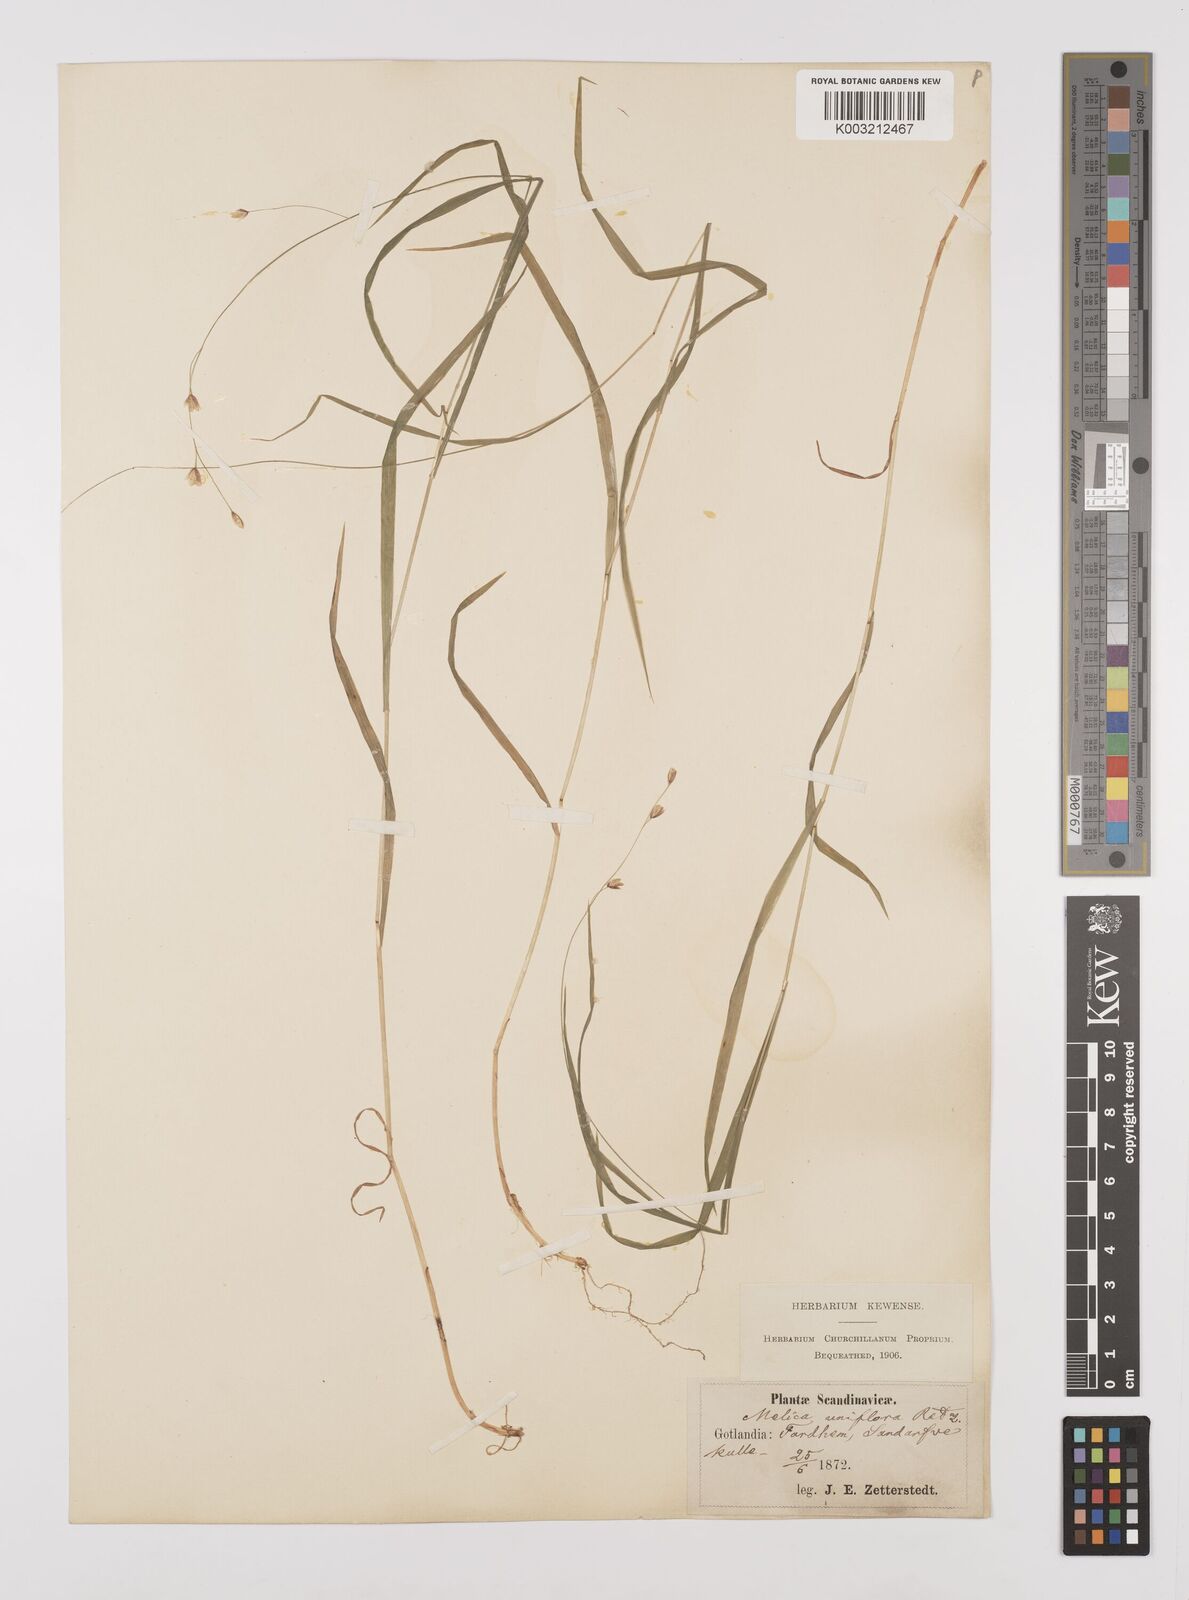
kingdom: Plantae
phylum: Tracheophyta
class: Liliopsida
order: Poales
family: Poaceae
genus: Melica
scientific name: Melica uniflora
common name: Wood melick
